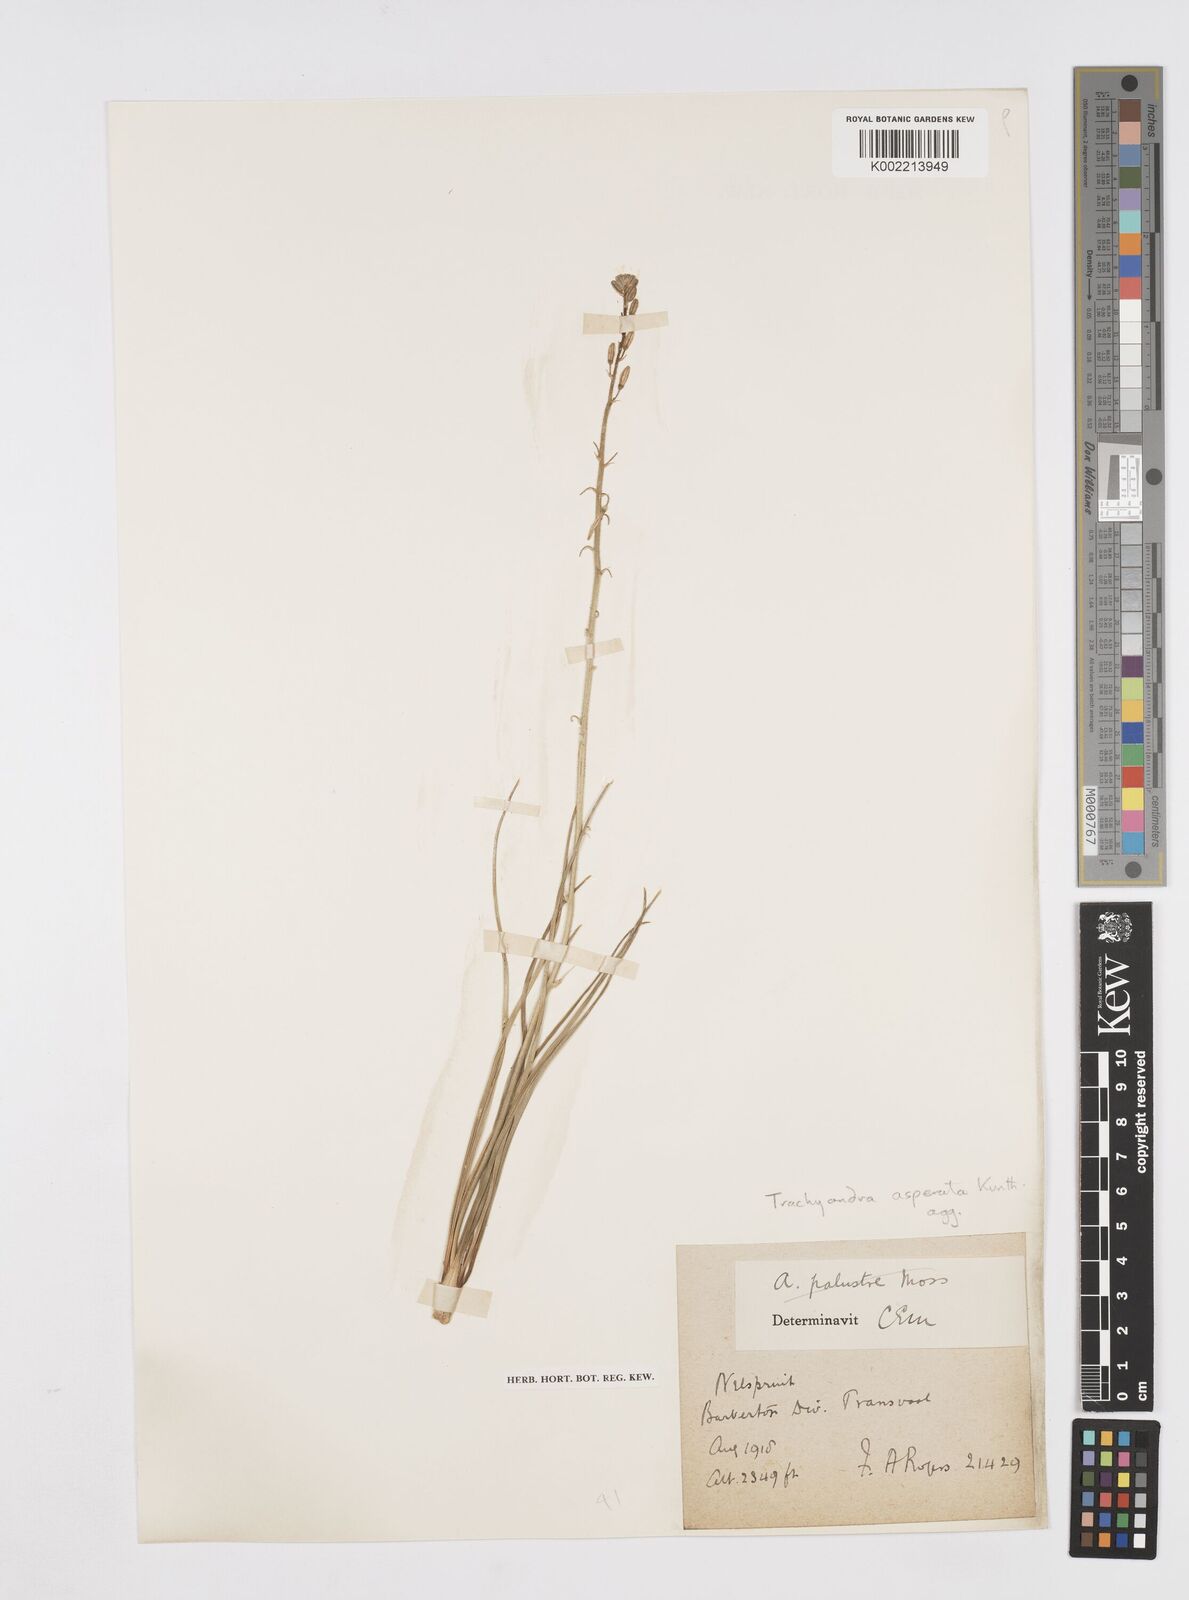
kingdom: Plantae
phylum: Tracheophyta
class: Liliopsida
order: Asparagales
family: Asphodelaceae
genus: Trachyandra
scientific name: Trachyandra asperata
